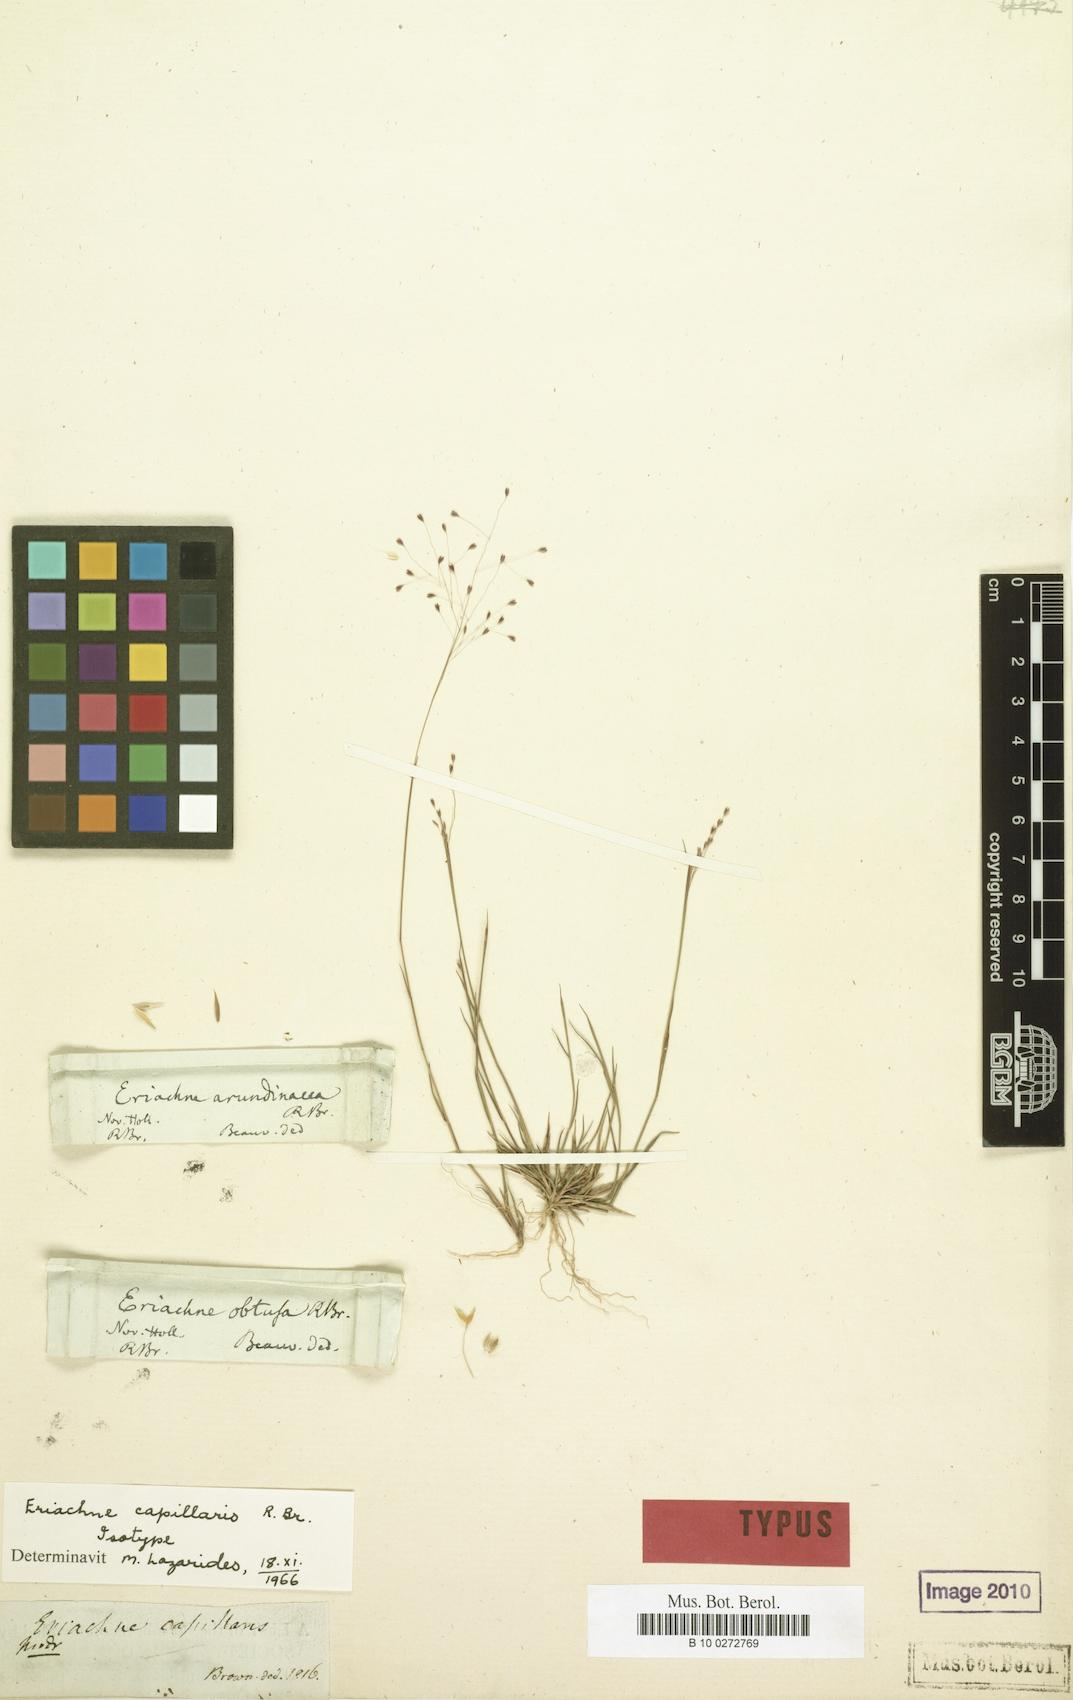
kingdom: Plantae
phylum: Tracheophyta
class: Liliopsida
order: Poales
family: Poaceae
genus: Eriachne
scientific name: Eriachne capillaris
